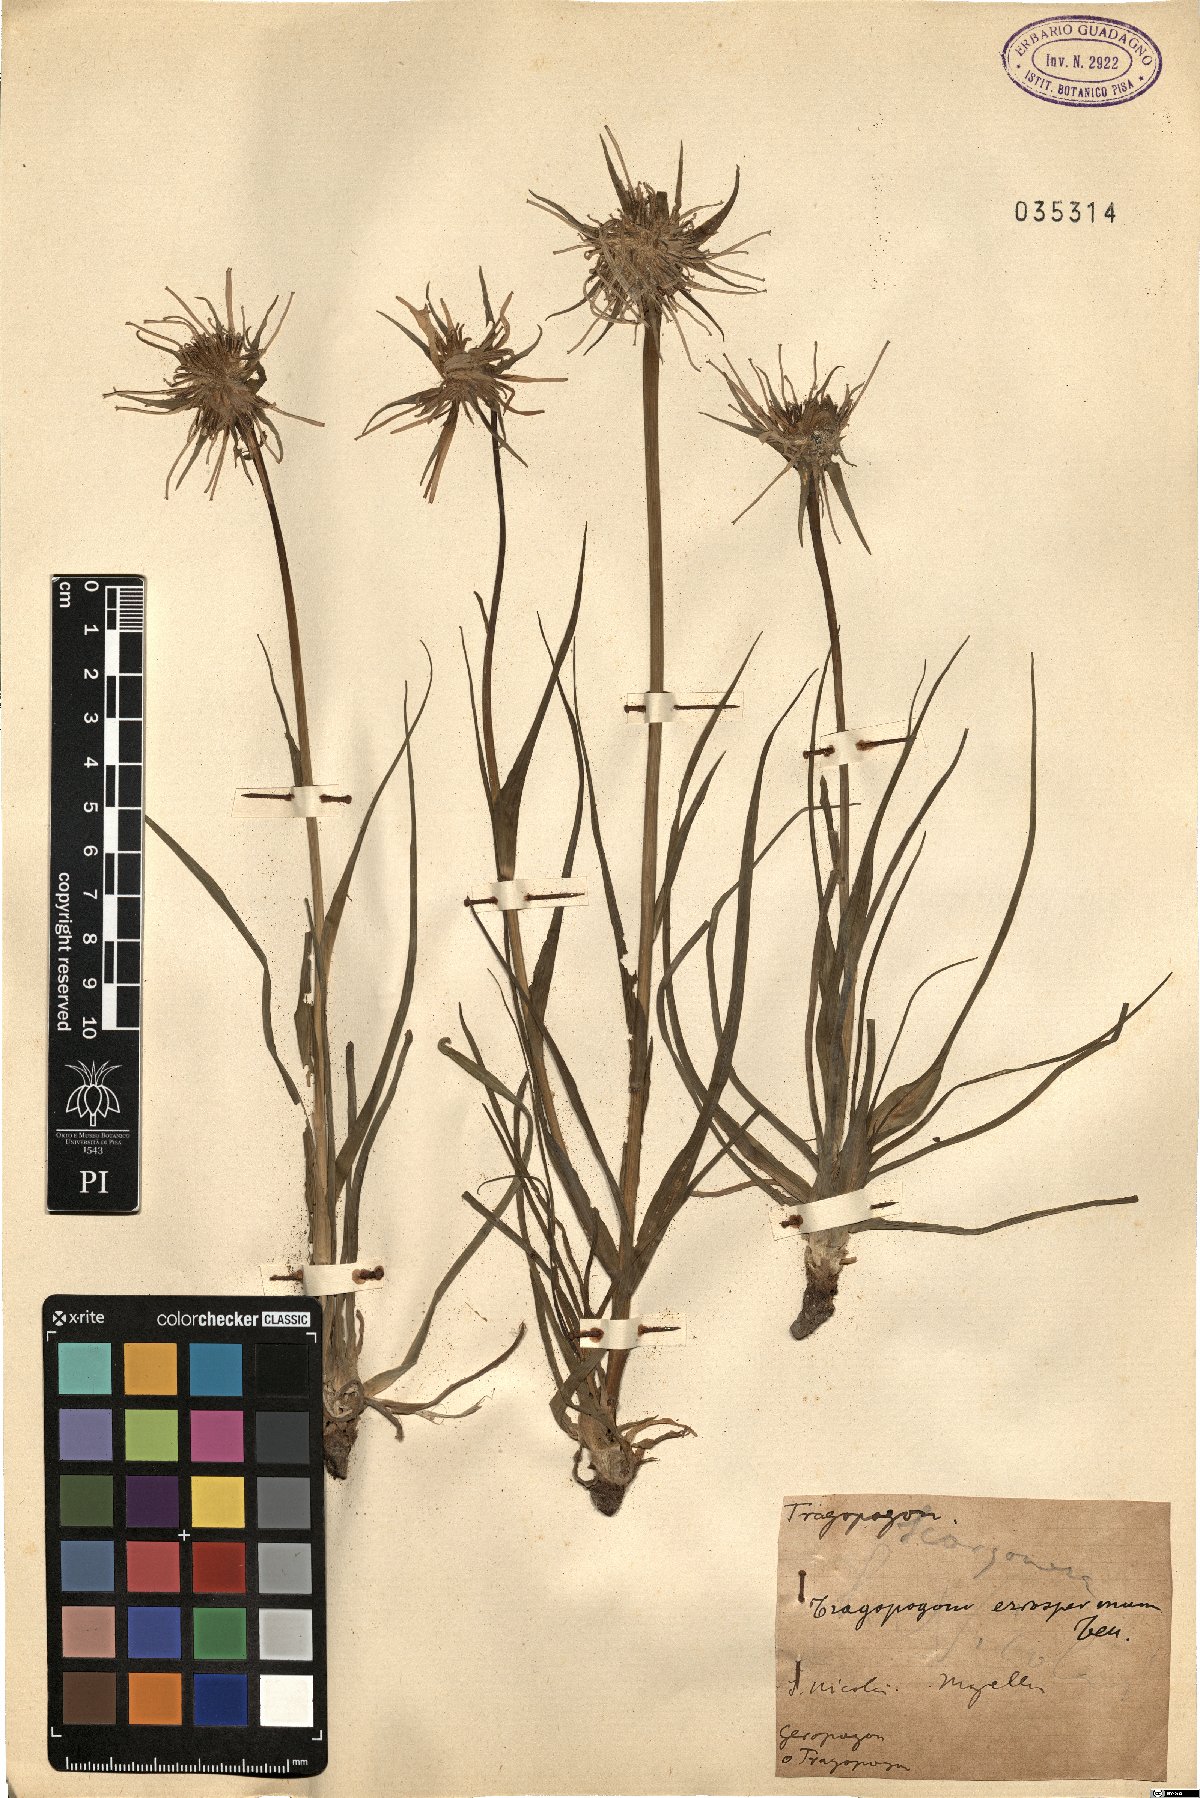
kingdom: Plantae
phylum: Tracheophyta
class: Magnoliopsida
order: Asterales
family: Asteraceae
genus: Tragopogon
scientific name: Tragopogon porrifolius
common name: Salsify
